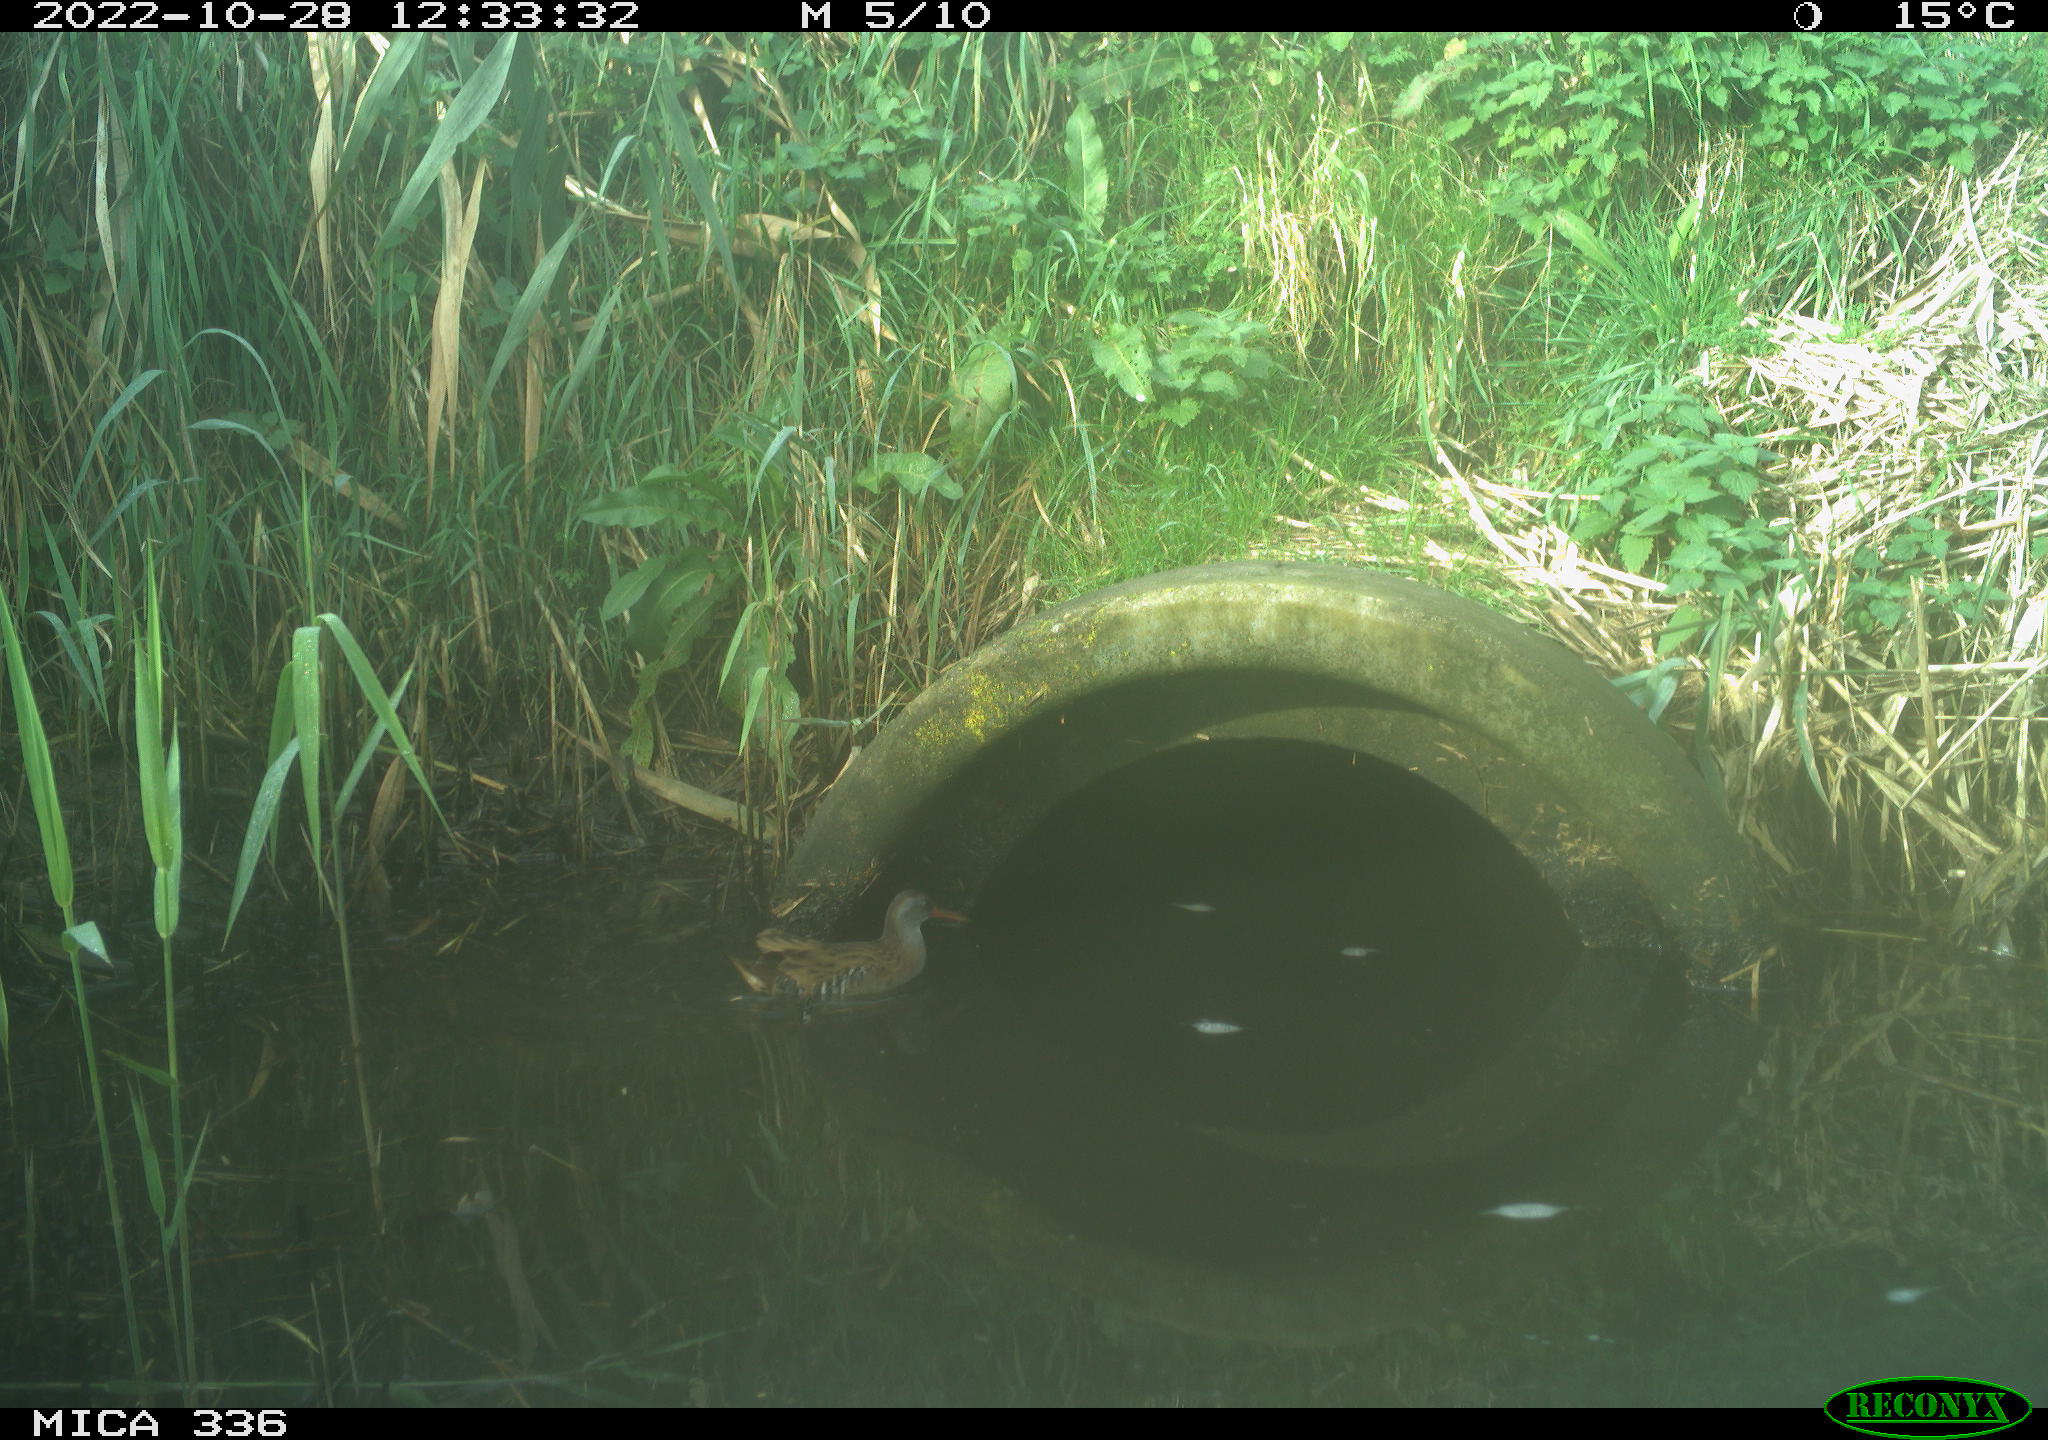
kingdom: Animalia
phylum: Chordata
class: Aves
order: Gruiformes
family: Rallidae
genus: Rallus
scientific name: Rallus aquaticus
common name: Water rail
